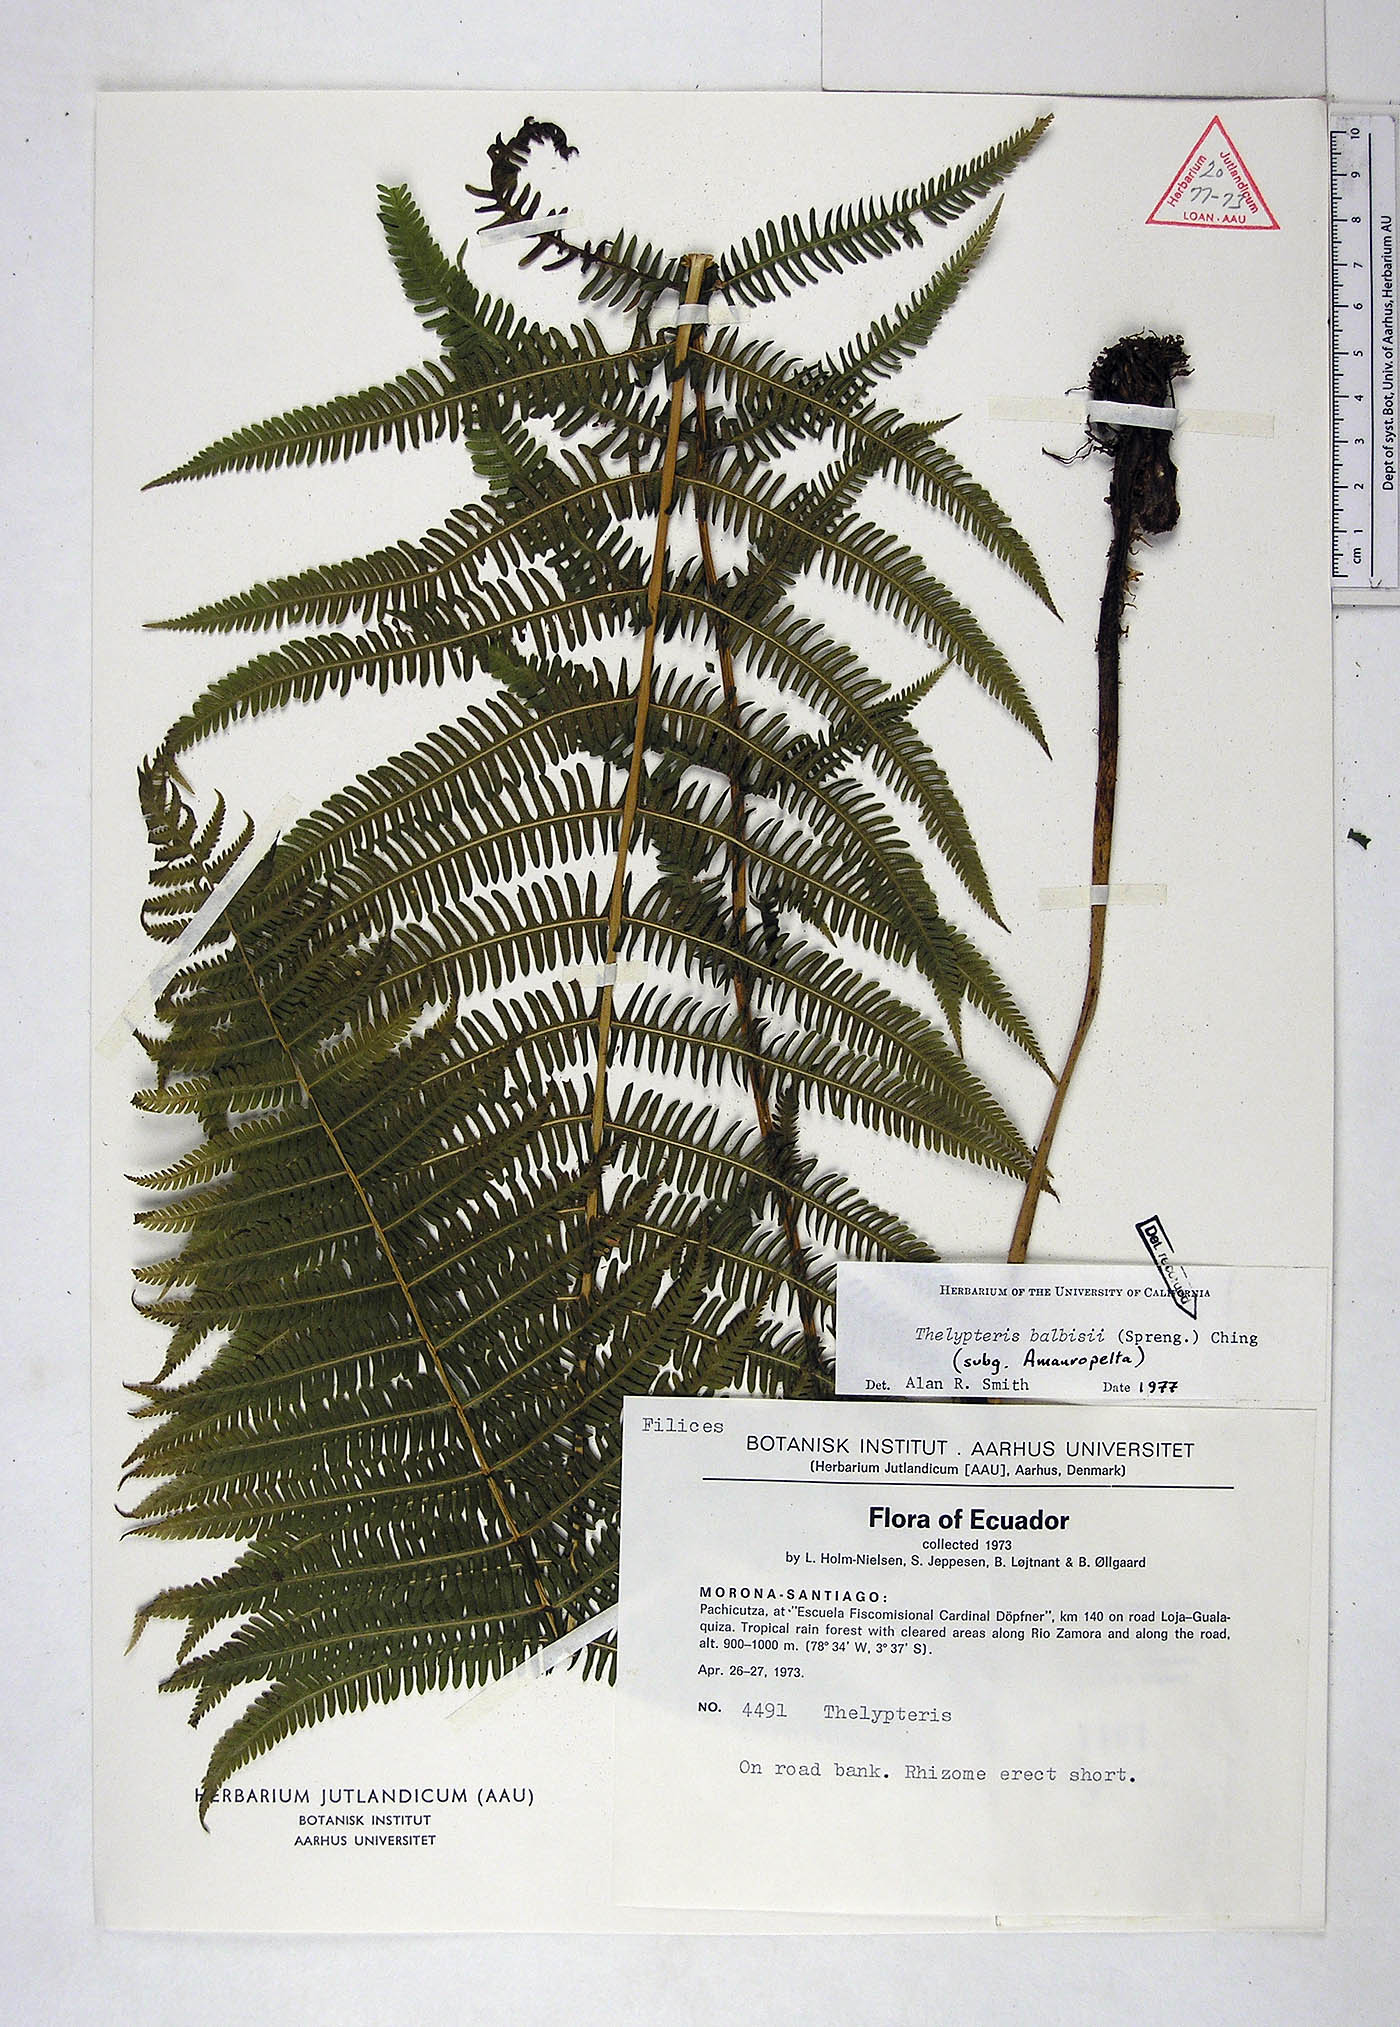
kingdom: Plantae
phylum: Tracheophyta
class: Polypodiopsida
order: Polypodiales
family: Thelypteridaceae
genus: Amauropelta
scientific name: Amauropelta balbisii
